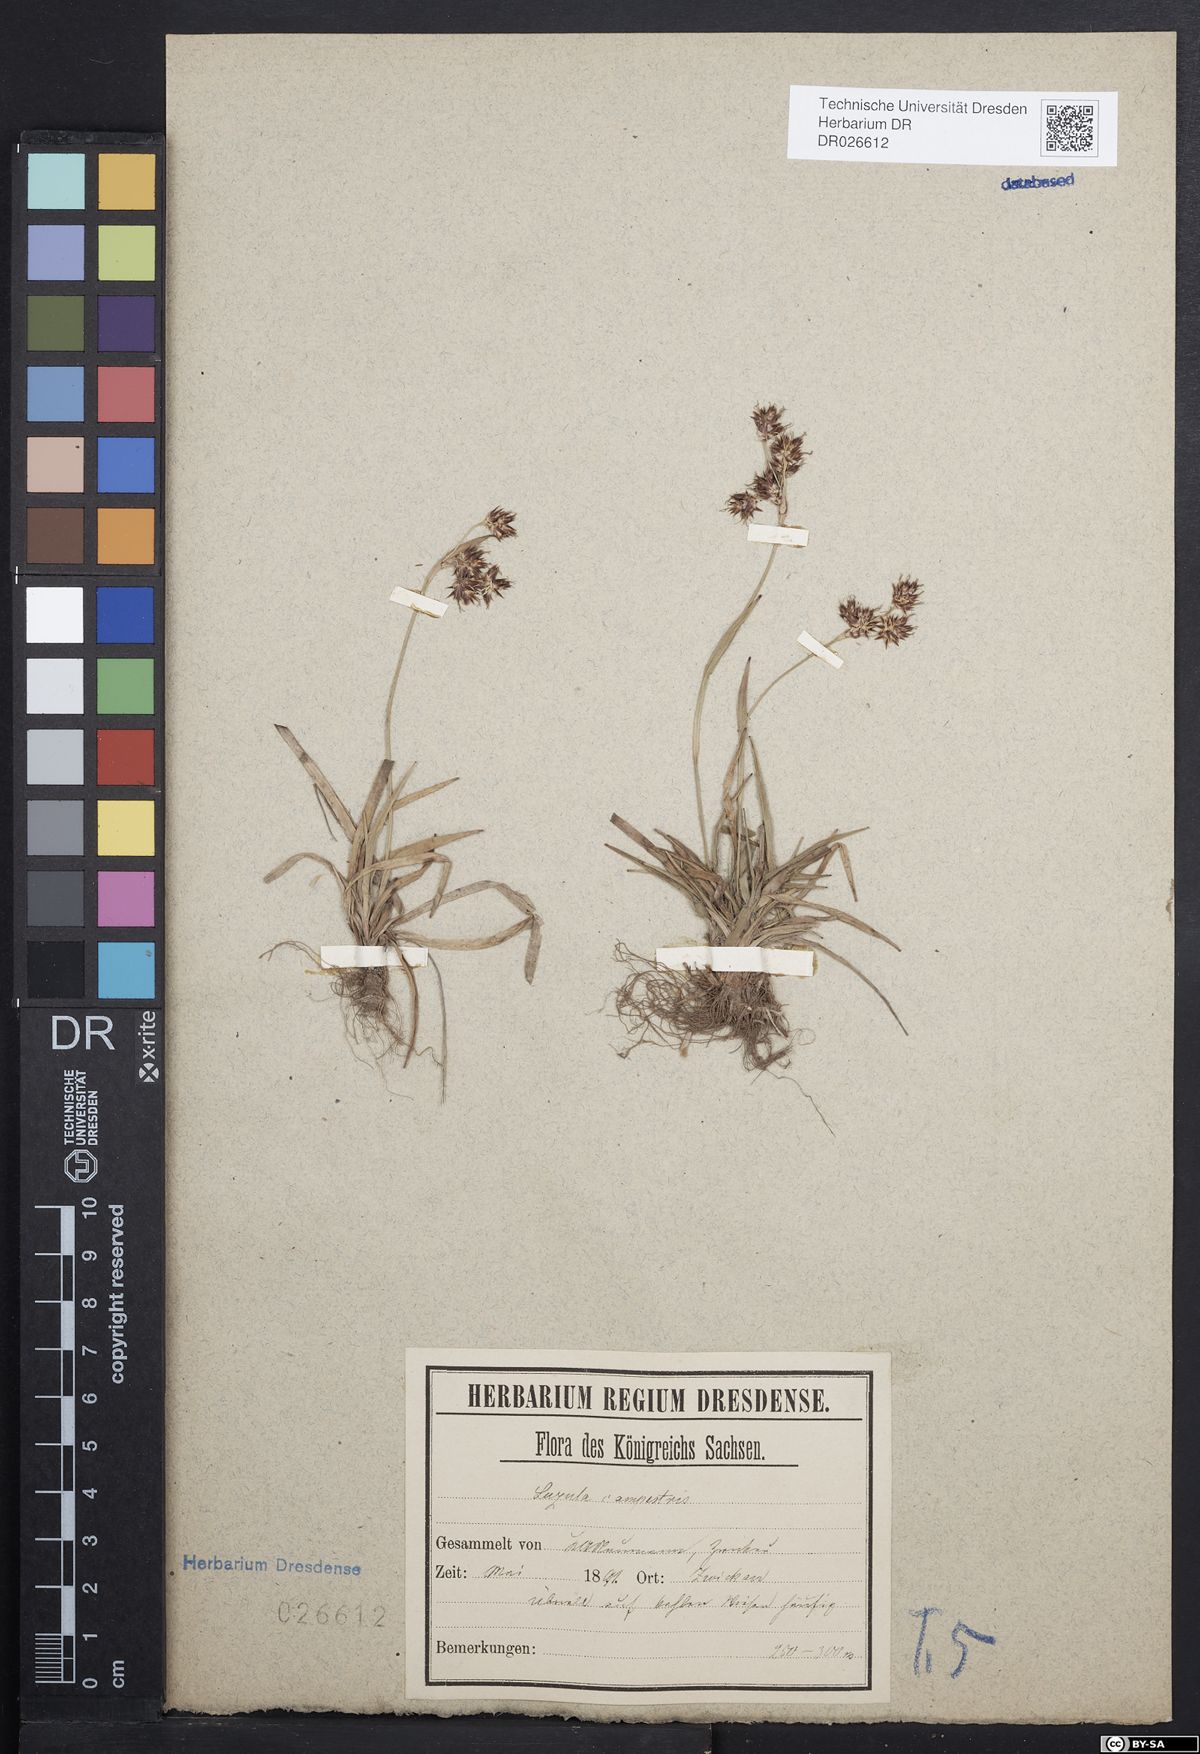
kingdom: Plantae
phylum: Tracheophyta
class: Liliopsida
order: Poales
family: Juncaceae
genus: Luzula
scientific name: Luzula campestris
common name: Field wood-rush
